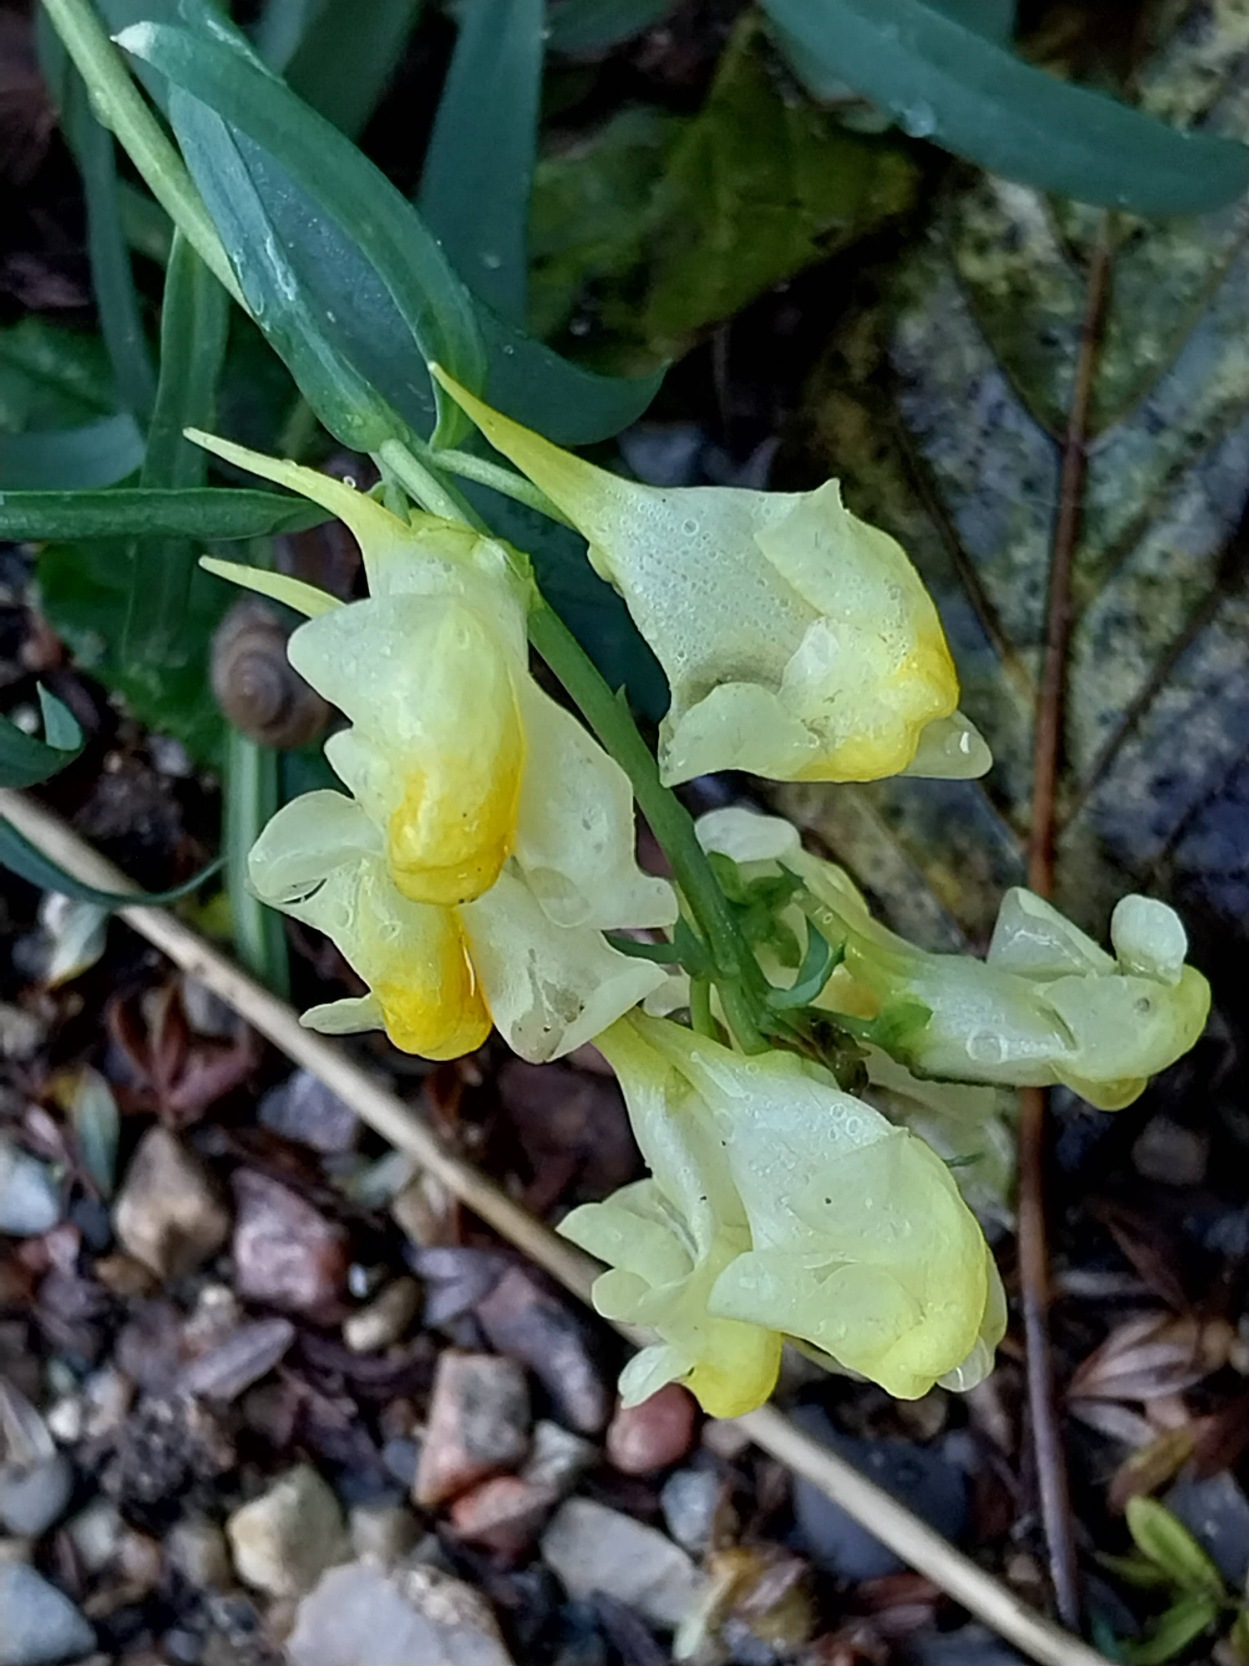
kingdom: Plantae
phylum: Tracheophyta
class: Magnoliopsida
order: Lamiales
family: Plantaginaceae
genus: Linaria
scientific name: Linaria vulgaris
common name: Almindelig torskemund
